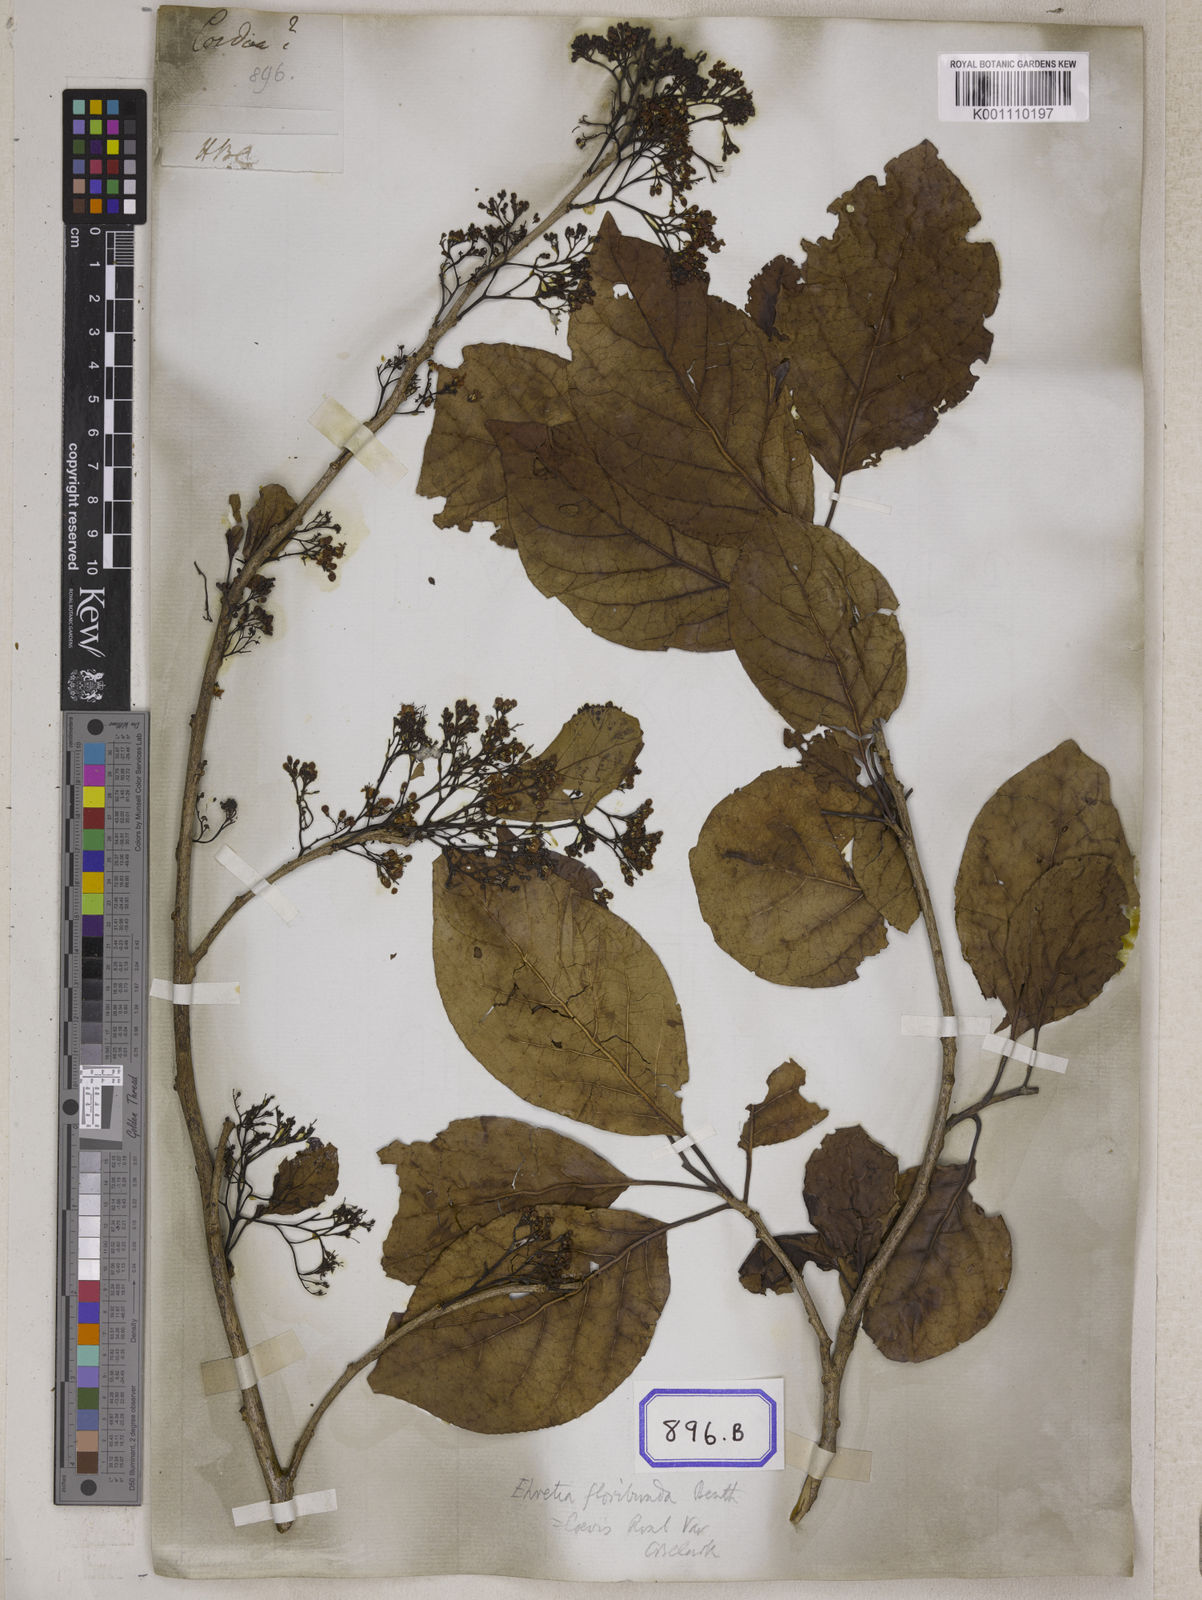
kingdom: Plantae
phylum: Tracheophyta
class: Magnoliopsida
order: Boraginales
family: Cordiaceae
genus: Cordia
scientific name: Cordia
